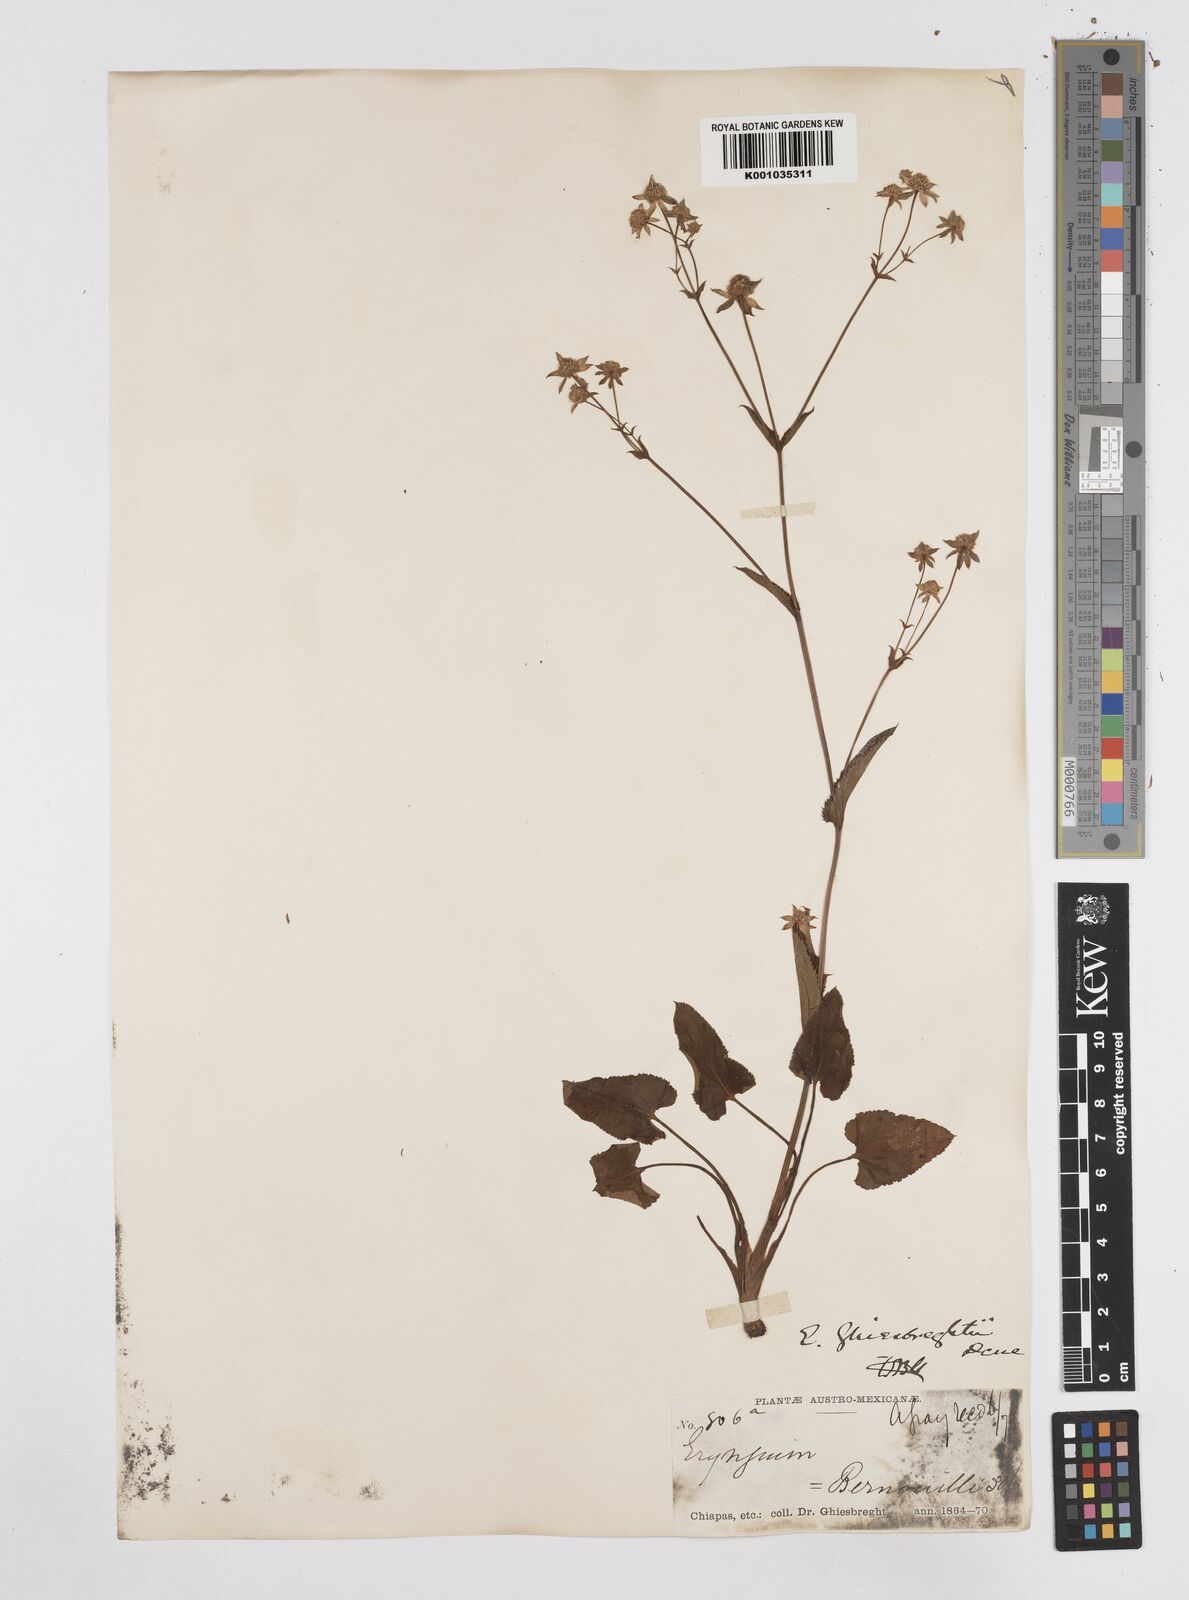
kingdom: Plantae
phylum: Tracheophyta
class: Magnoliopsida
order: Apiales
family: Apiaceae
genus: Eryngium
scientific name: Eryngium ghiesbreghtii
